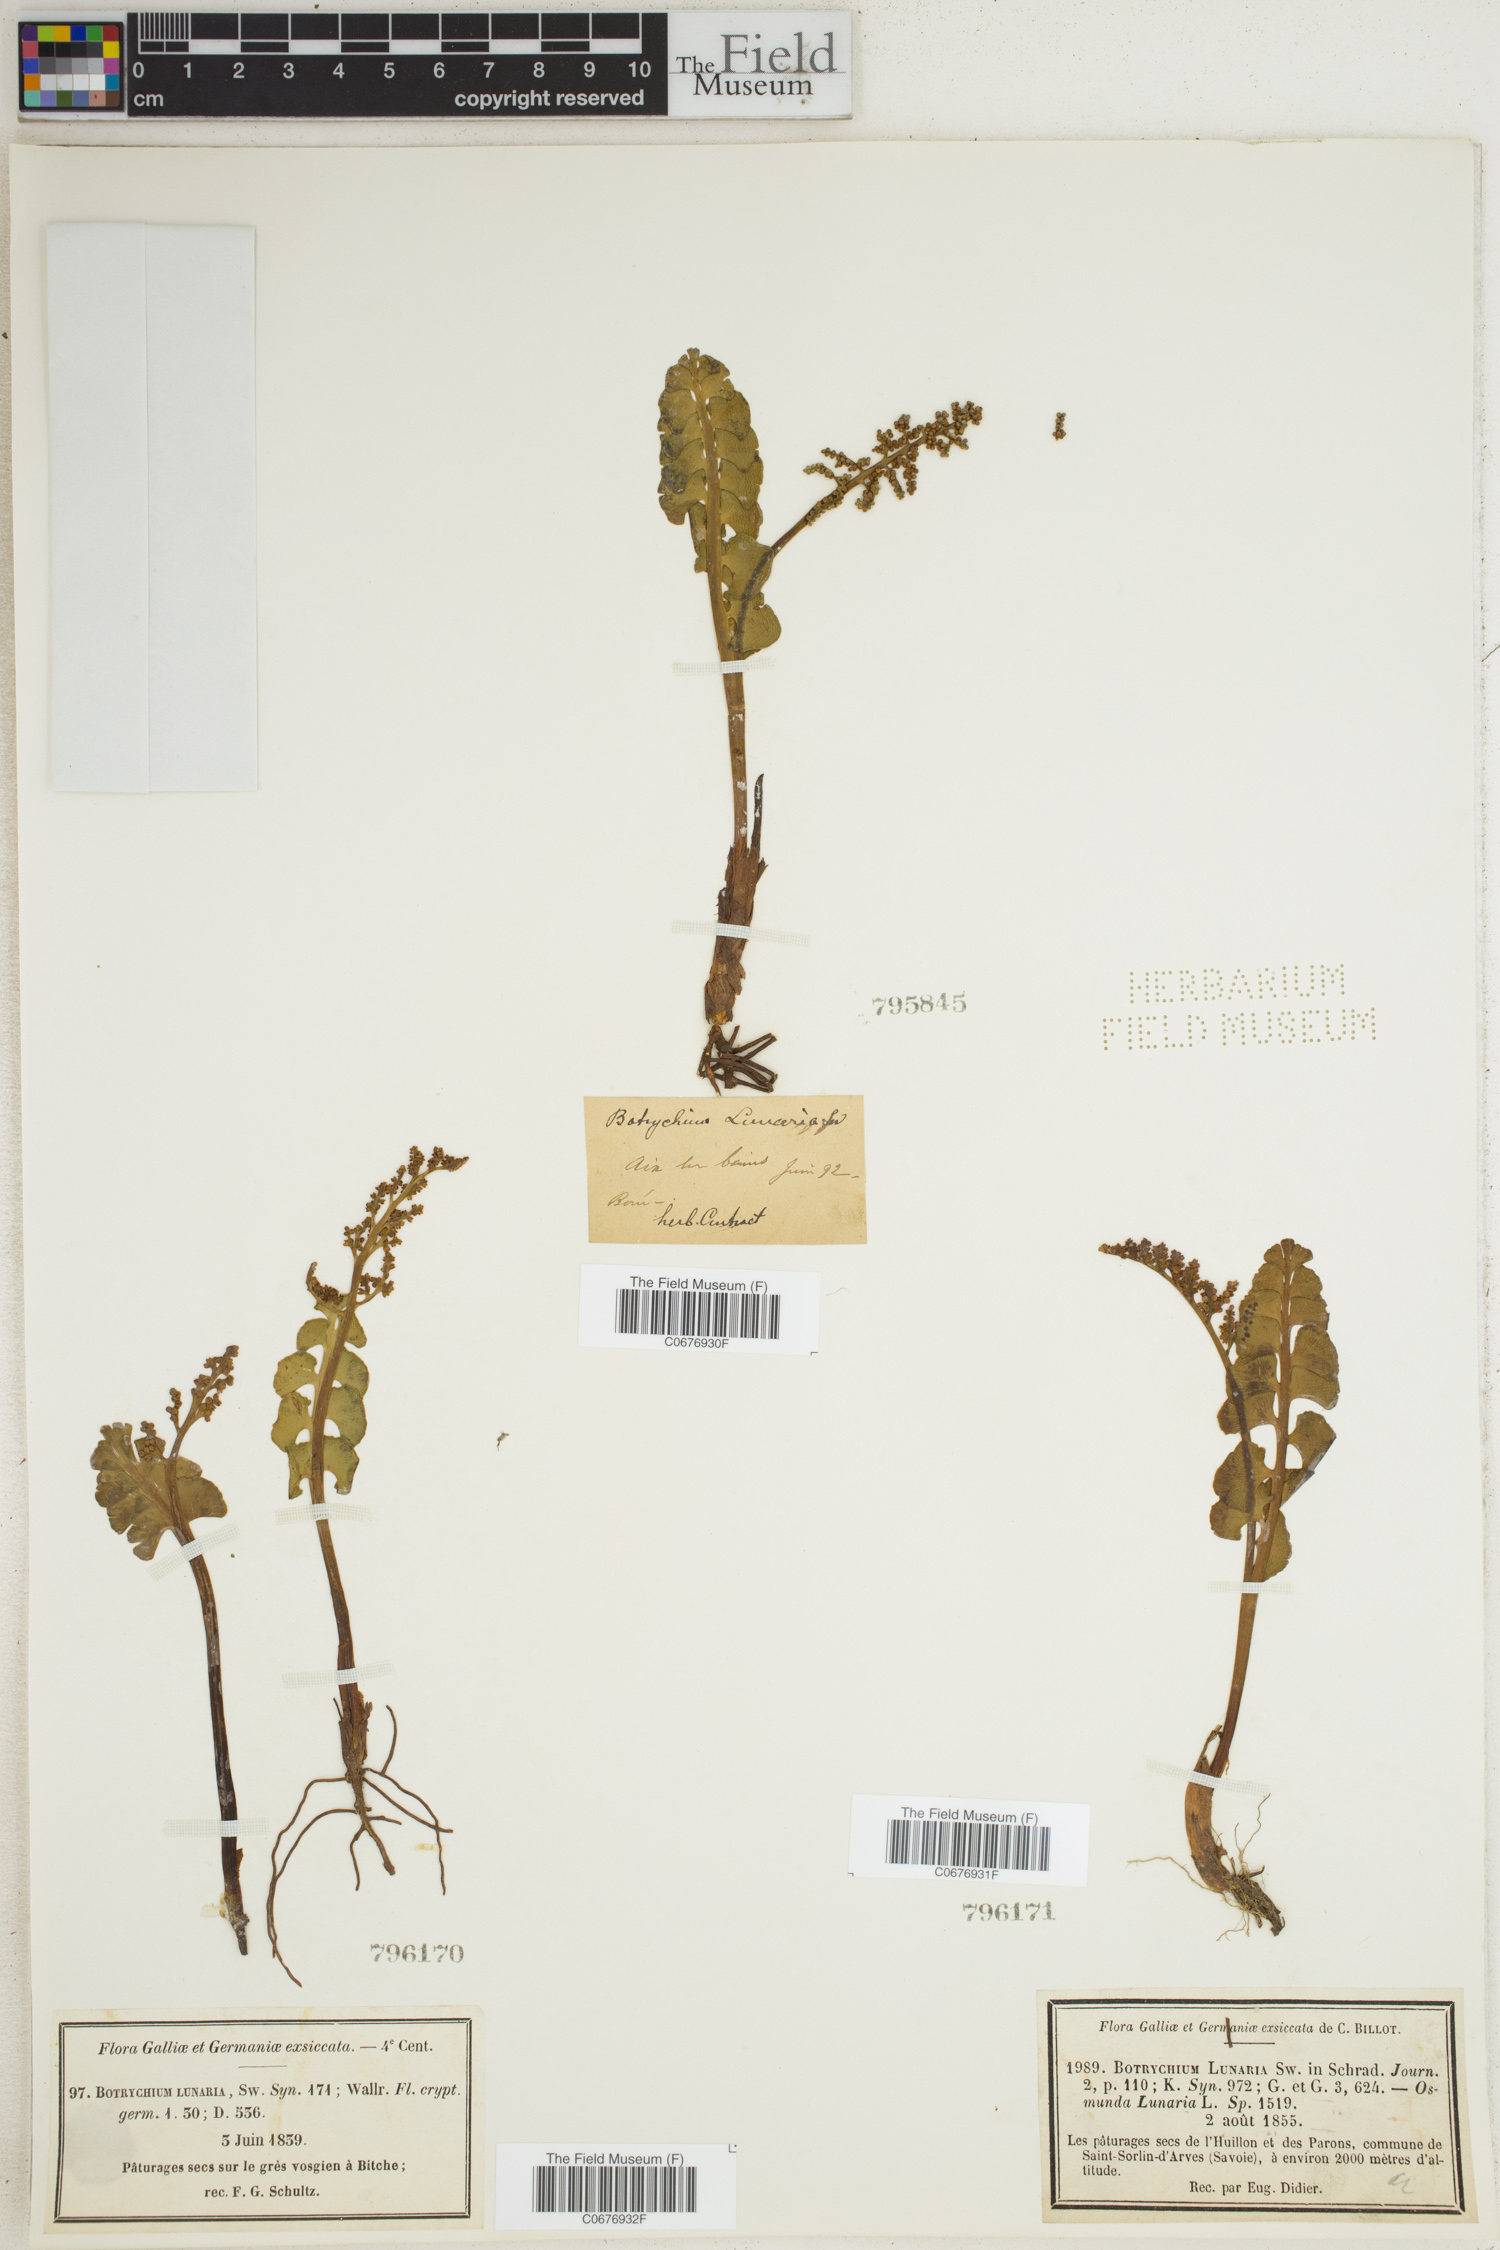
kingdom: Plantae
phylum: Tracheophyta
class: Polypodiopsida
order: Ophioglossales
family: Ophioglossaceae
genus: Botrychium
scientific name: Botrychium lunaria
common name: Moonwort
